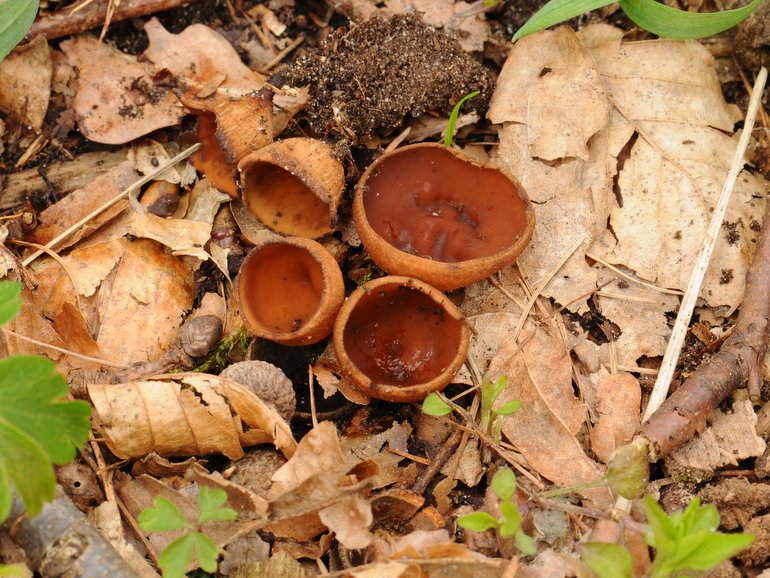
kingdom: Fungi
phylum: Ascomycota
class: Leotiomycetes
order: Helotiales
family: Sclerotiniaceae
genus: Dumontinia
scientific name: Dumontinia tuberosa
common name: anemone-knoldskive
